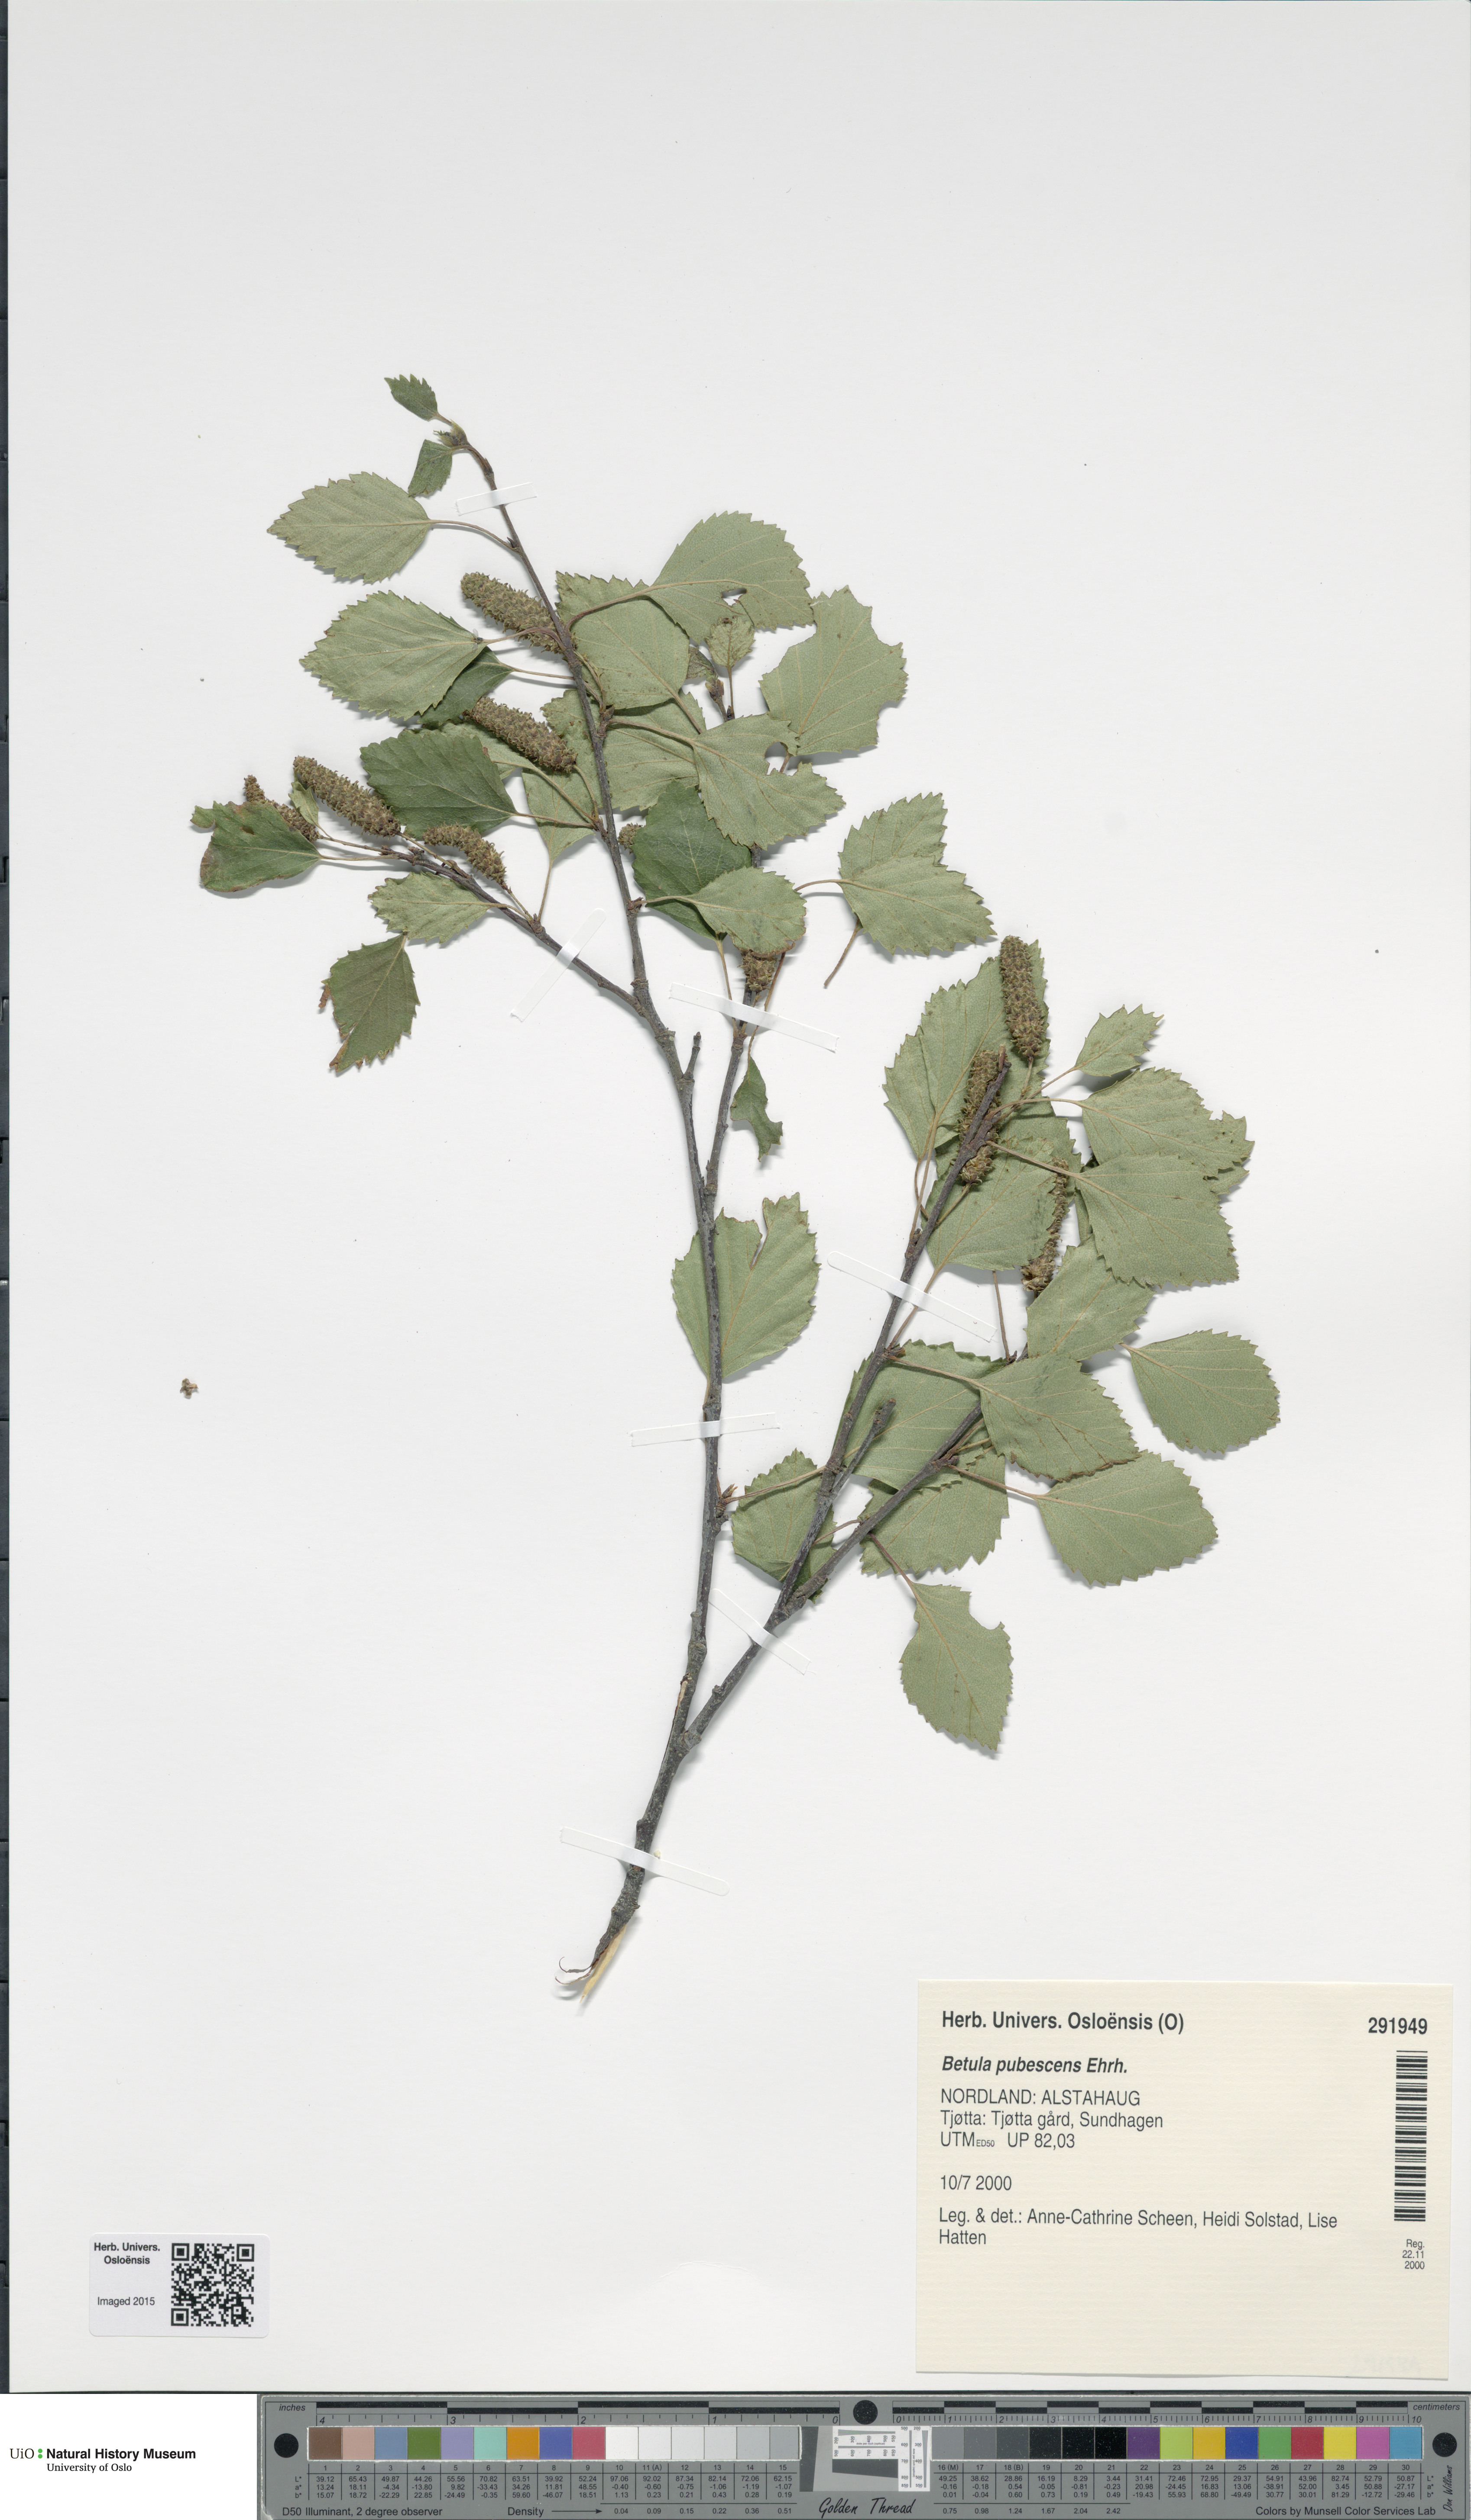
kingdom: Plantae
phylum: Tracheophyta
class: Magnoliopsida
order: Fagales
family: Betulaceae
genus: Betula
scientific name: Betula pubescens
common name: Downy birch
